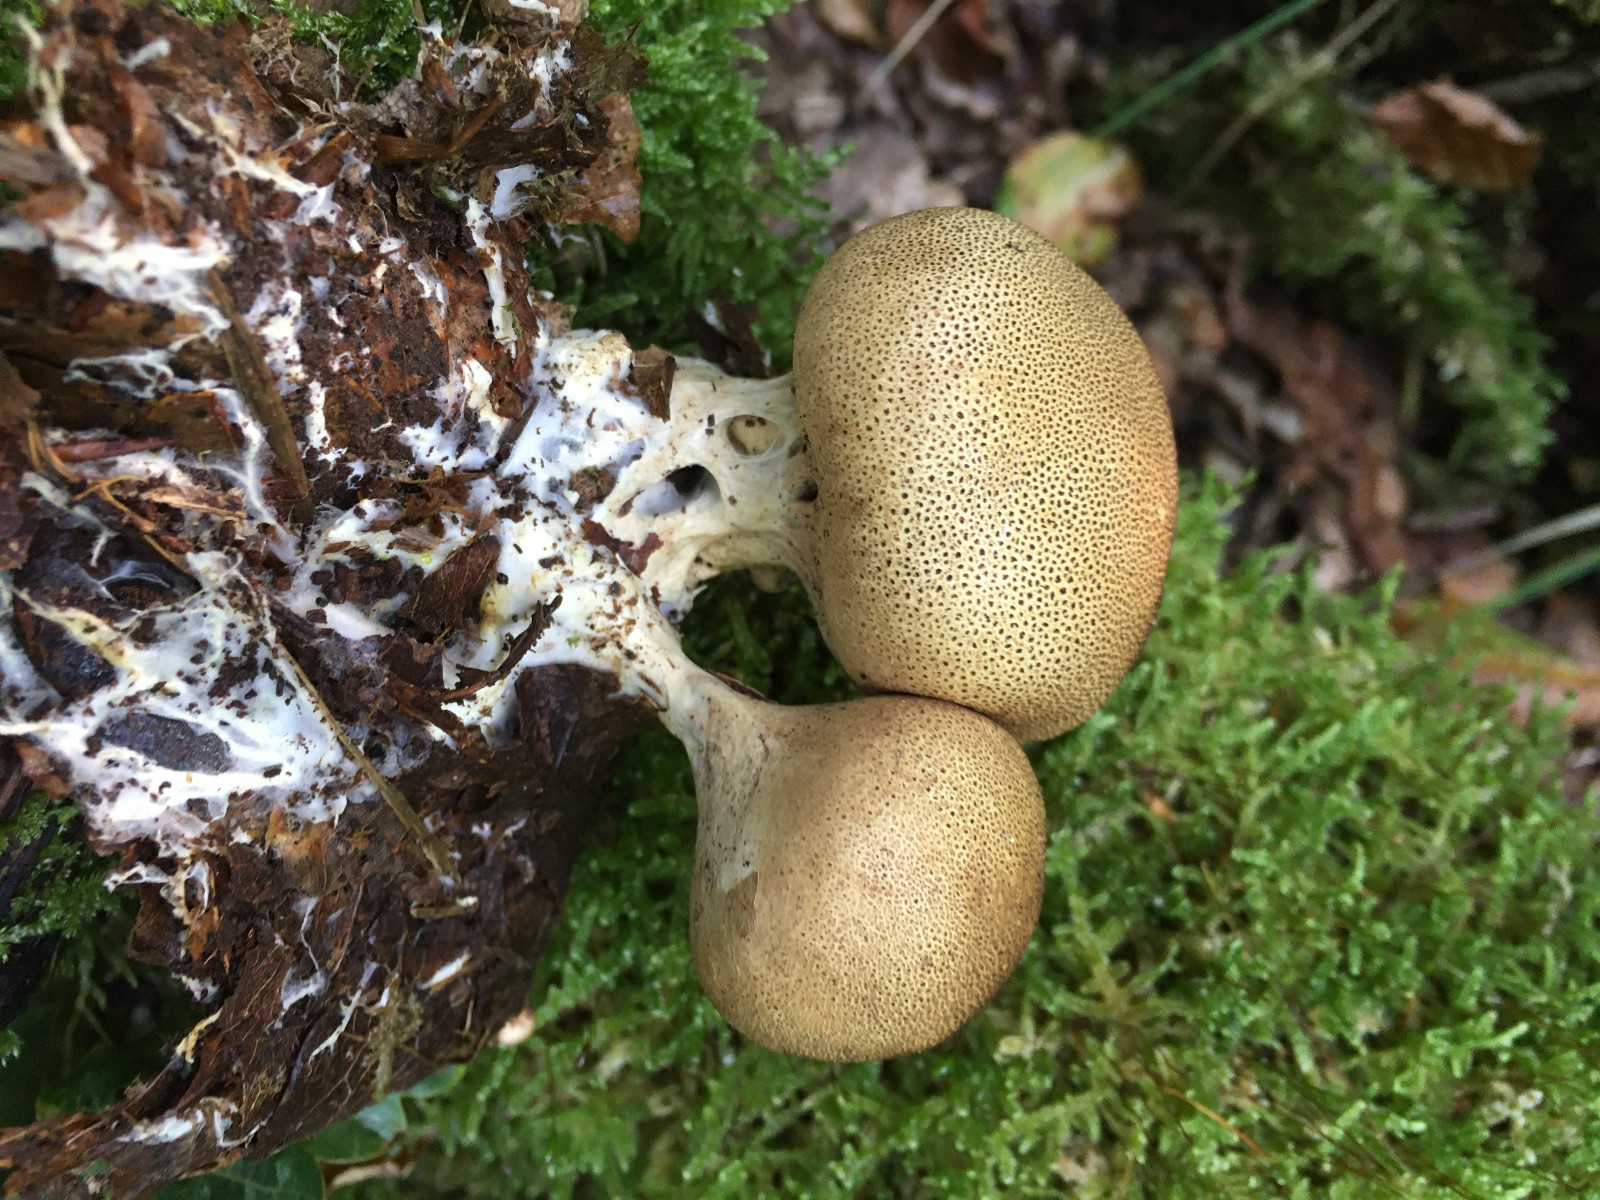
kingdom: Fungi
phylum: Basidiomycota
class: Agaricomycetes
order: Boletales
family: Sclerodermataceae
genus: Scleroderma
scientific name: Scleroderma verrucosum
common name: stilket bruskbold
